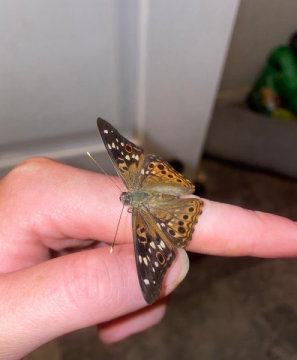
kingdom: Animalia
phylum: Arthropoda
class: Insecta
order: Lepidoptera
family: Nymphalidae
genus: Asterocampa
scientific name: Asterocampa celtis
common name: Hackberry Emperor
